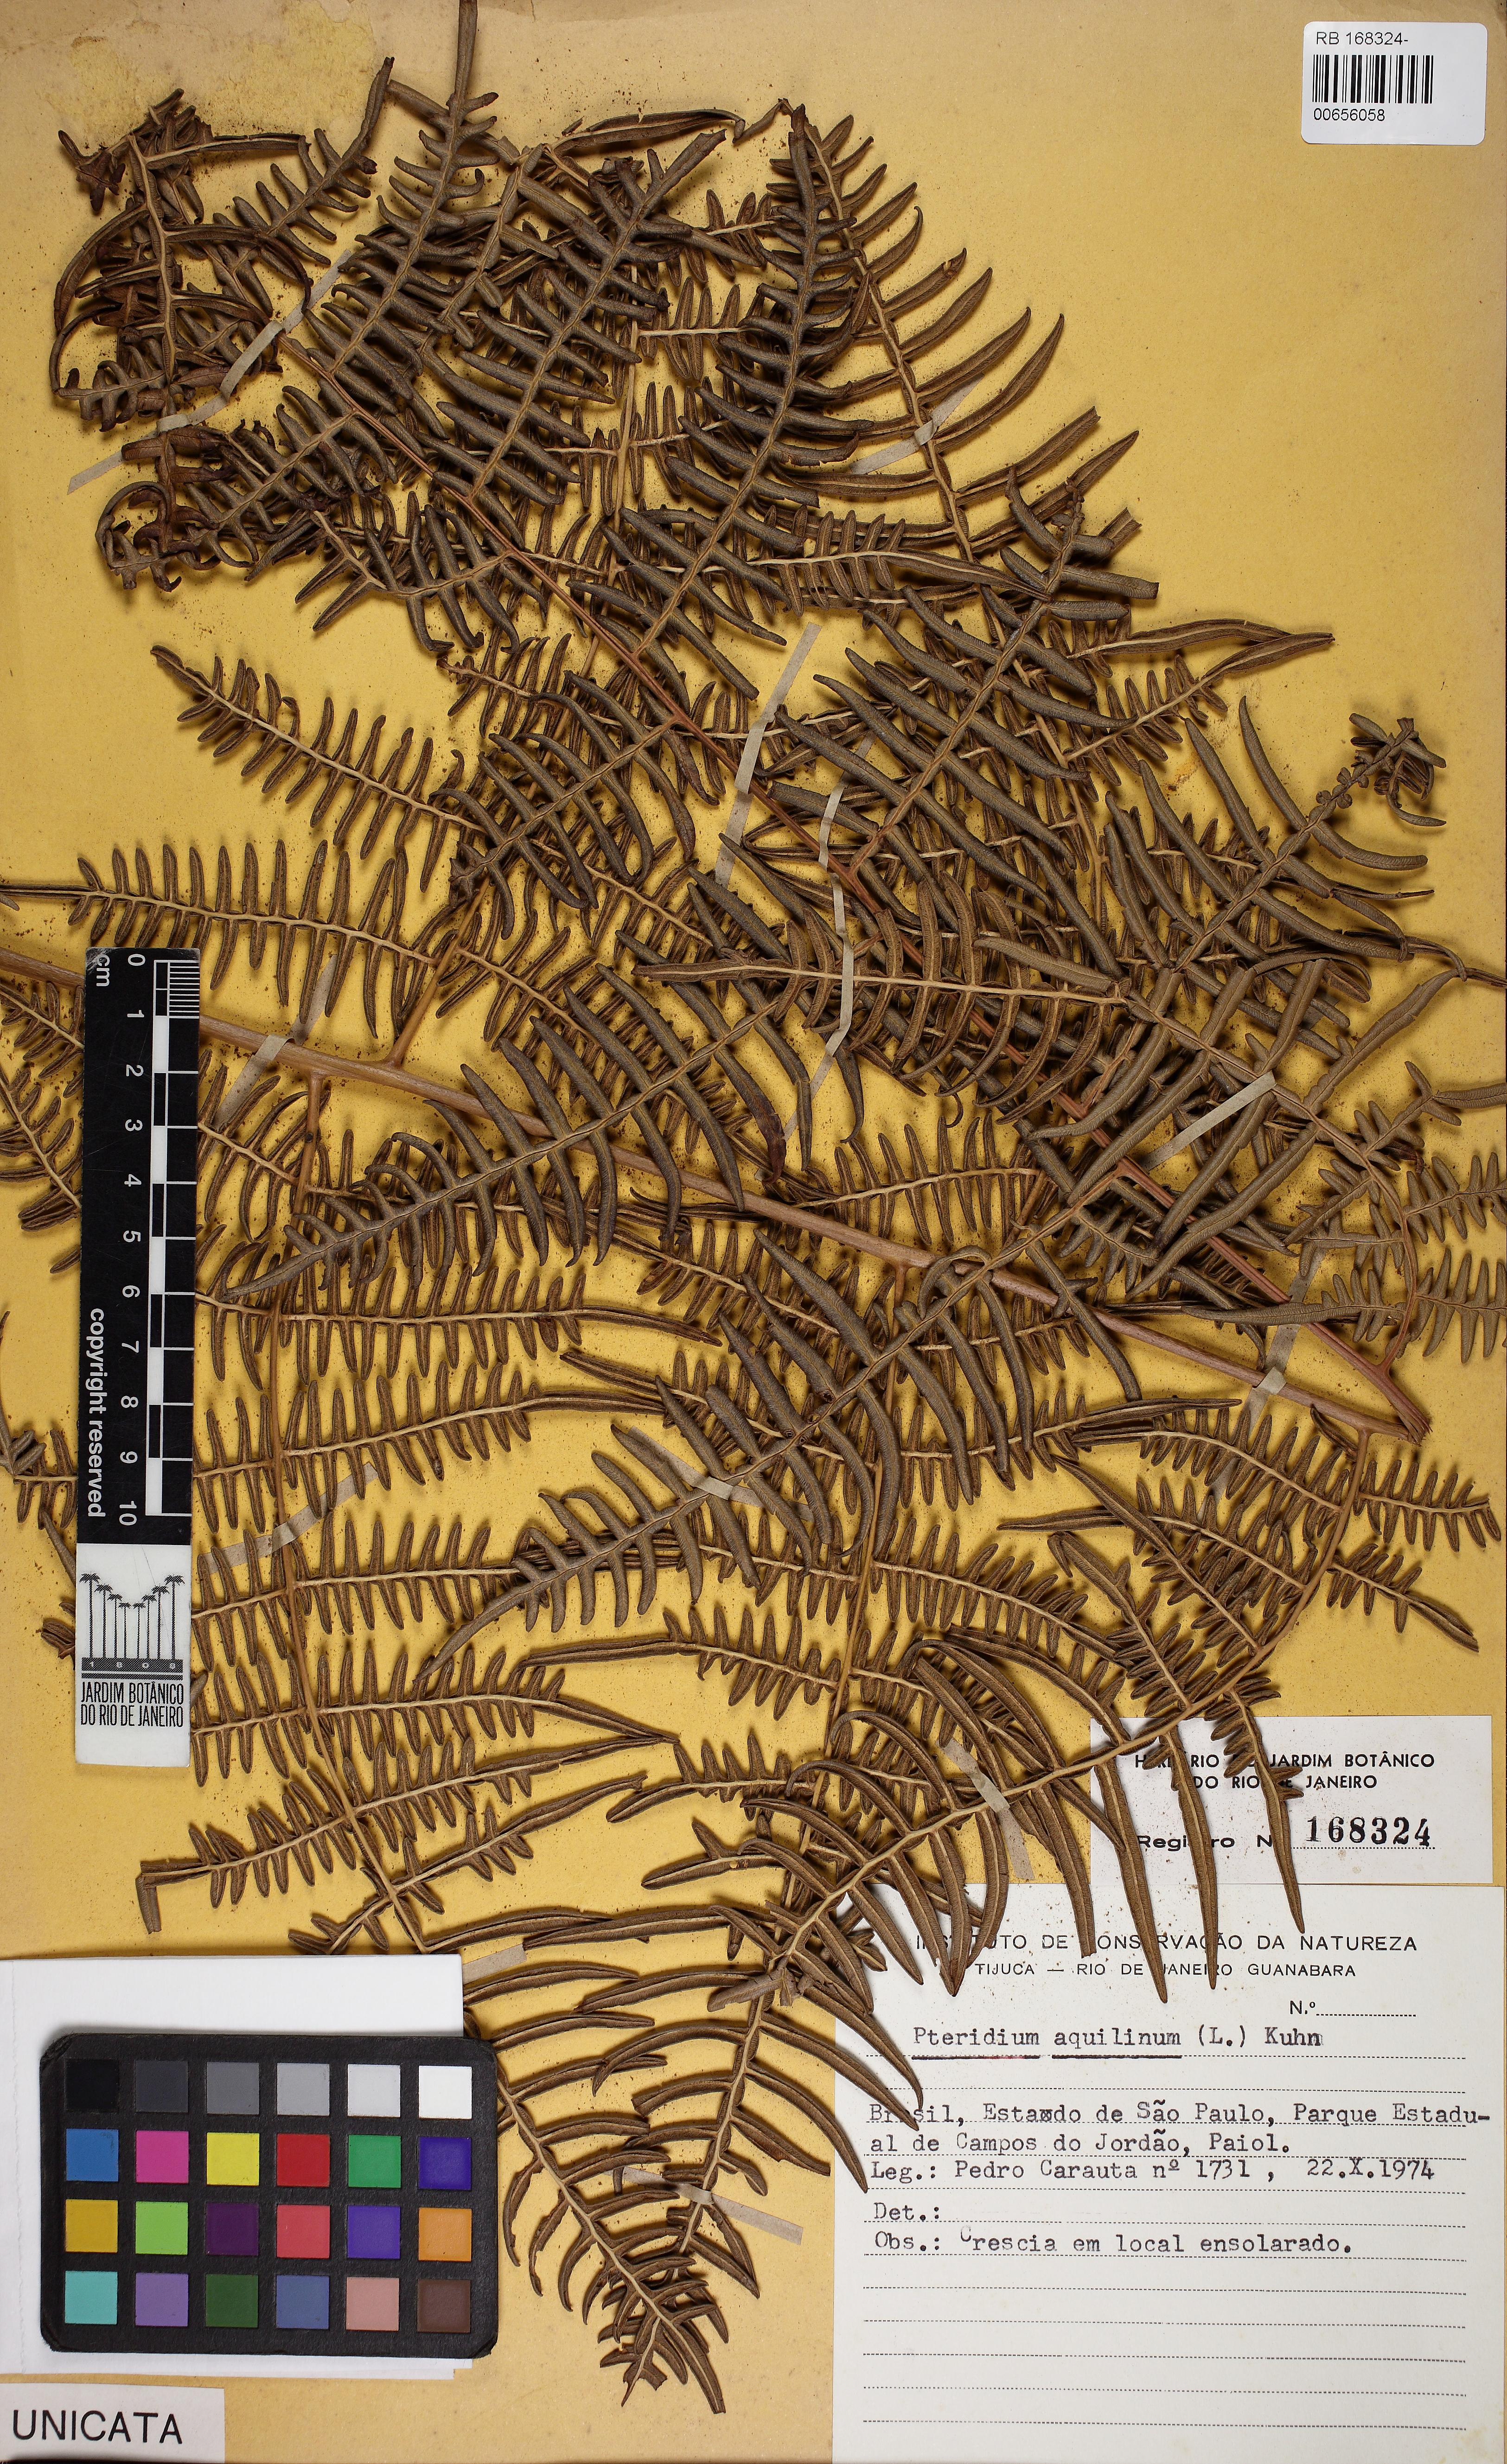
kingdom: Plantae
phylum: Tracheophyta
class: Polypodiopsida
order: Polypodiales
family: Dennstaedtiaceae
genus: Pteridium
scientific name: Pteridium aquilinum
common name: Bracken
